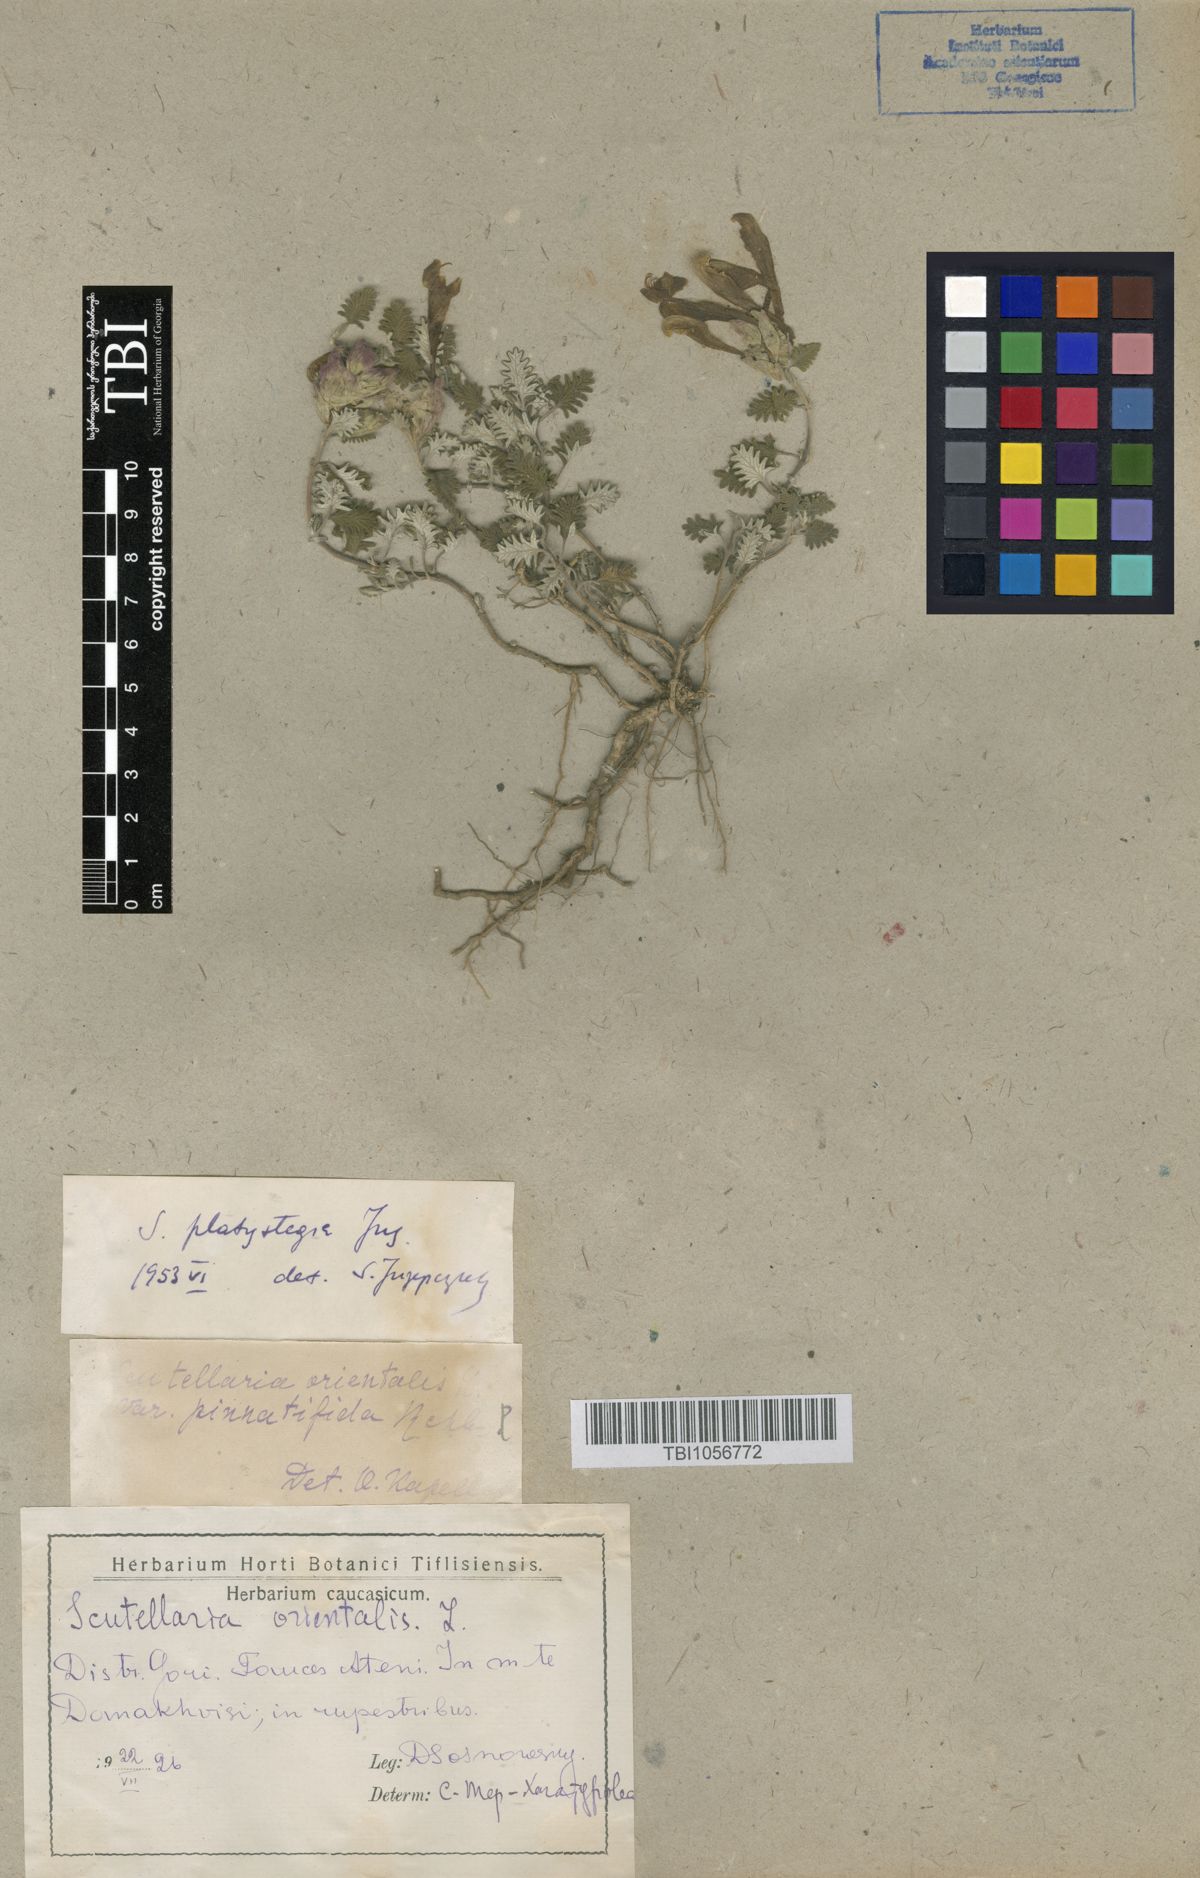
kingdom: Plantae
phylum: Tracheophyta
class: Magnoliopsida
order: Lamiales
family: Lamiaceae
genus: Scutellaria
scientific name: Scutellaria platystegia
